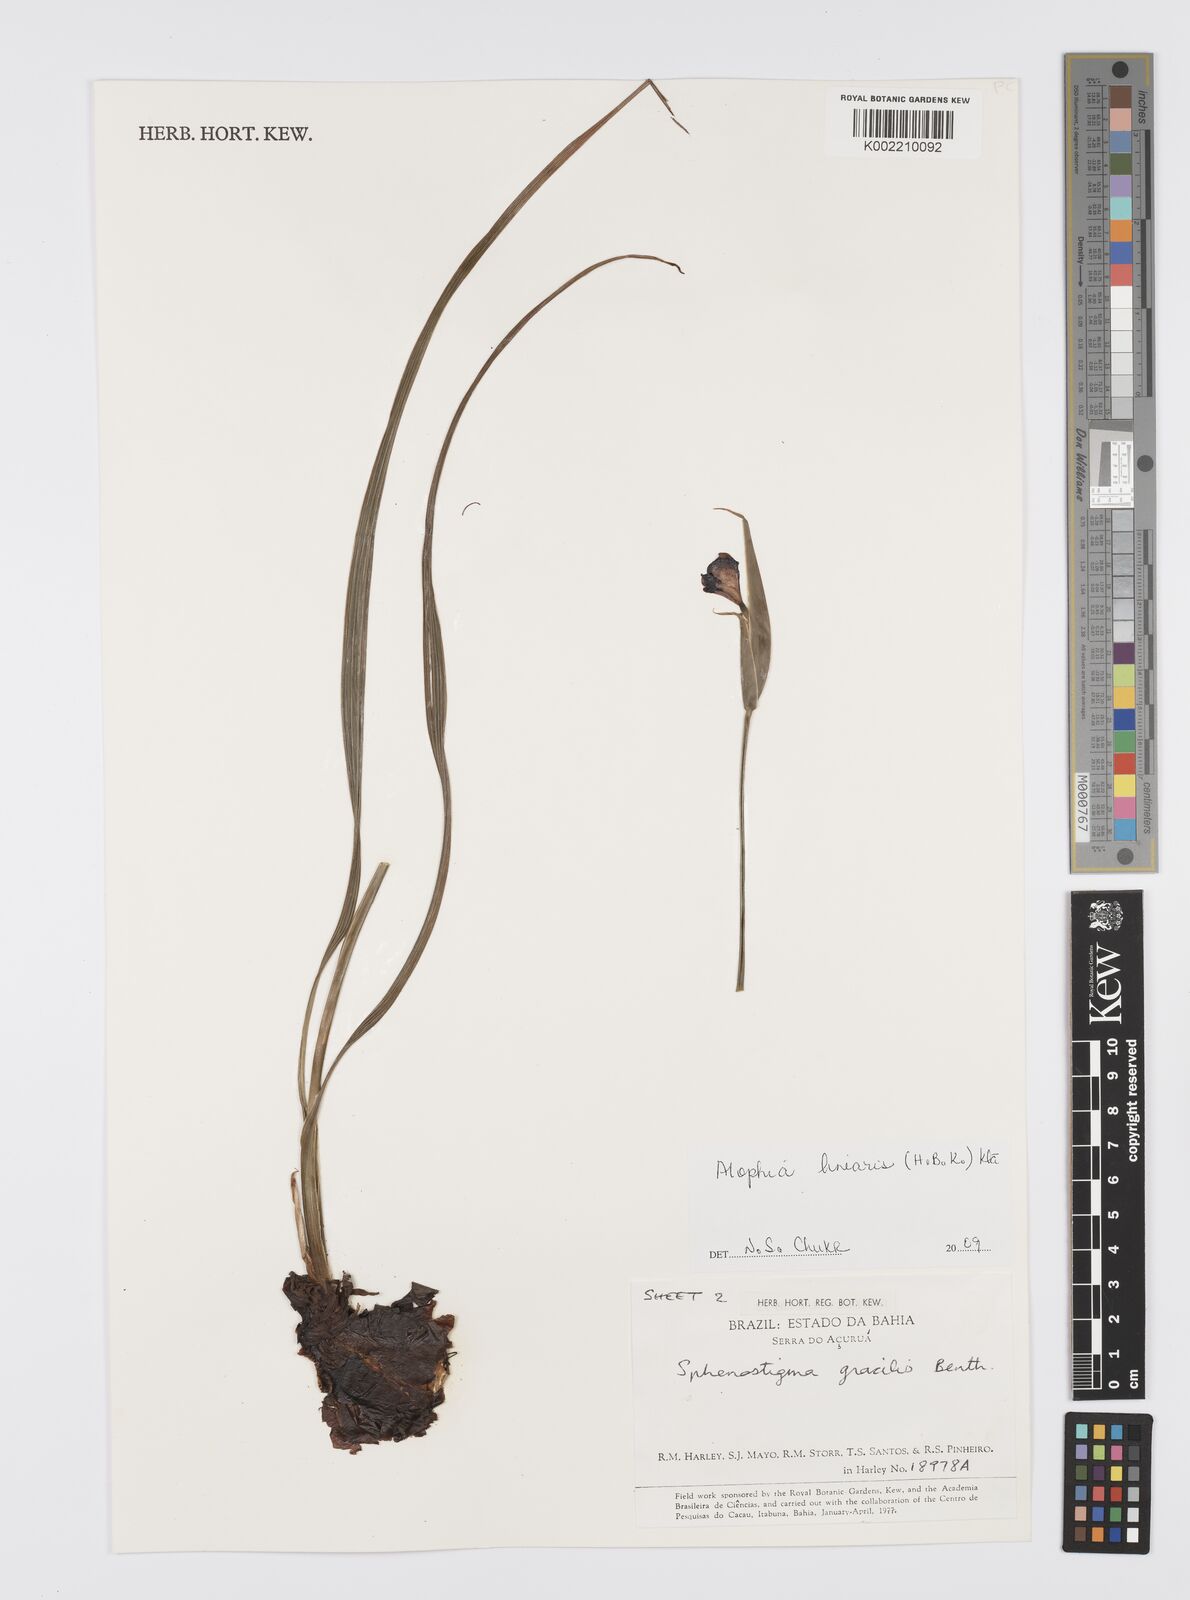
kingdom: Plantae
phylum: Tracheophyta
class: Liliopsida
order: Asparagales
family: Iridaceae
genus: Larentia
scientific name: Larentia linearis
